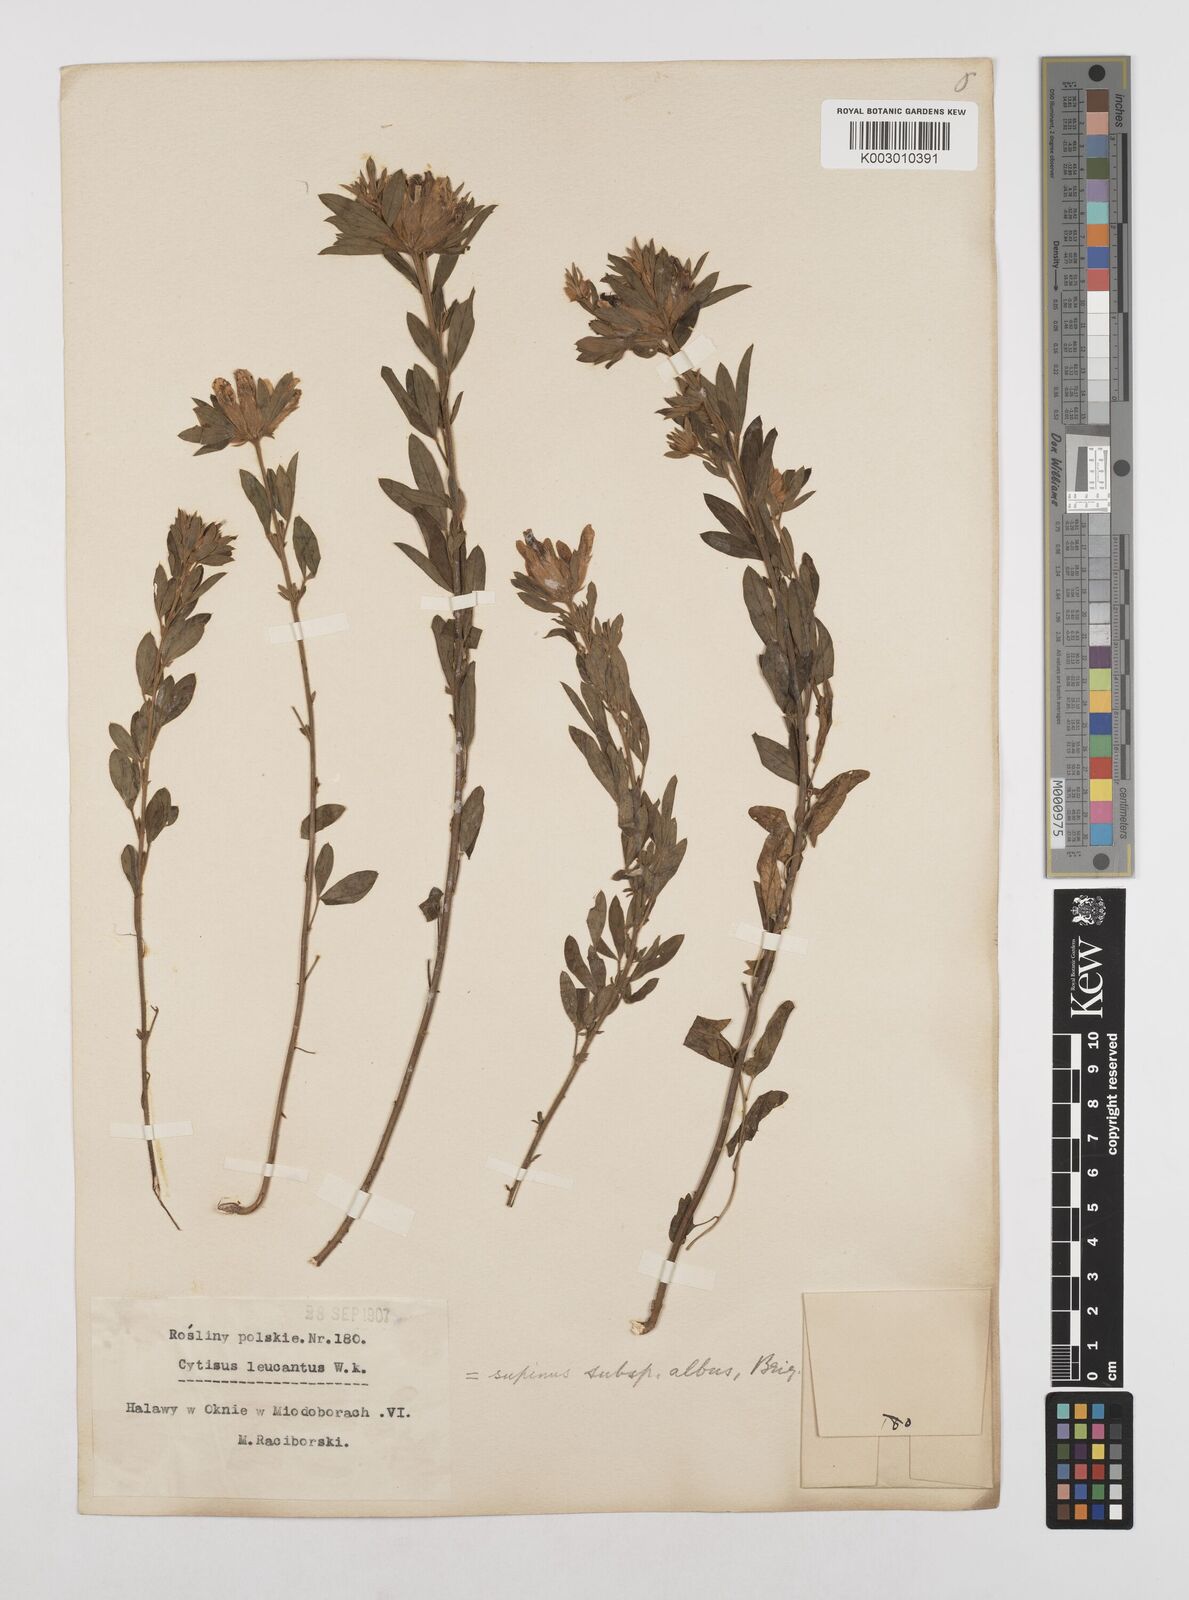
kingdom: Plantae
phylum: Tracheophyta
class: Magnoliopsida
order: Fabales
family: Fabaceae
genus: Cytisus
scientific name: Cytisus multiflorus
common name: White broom
